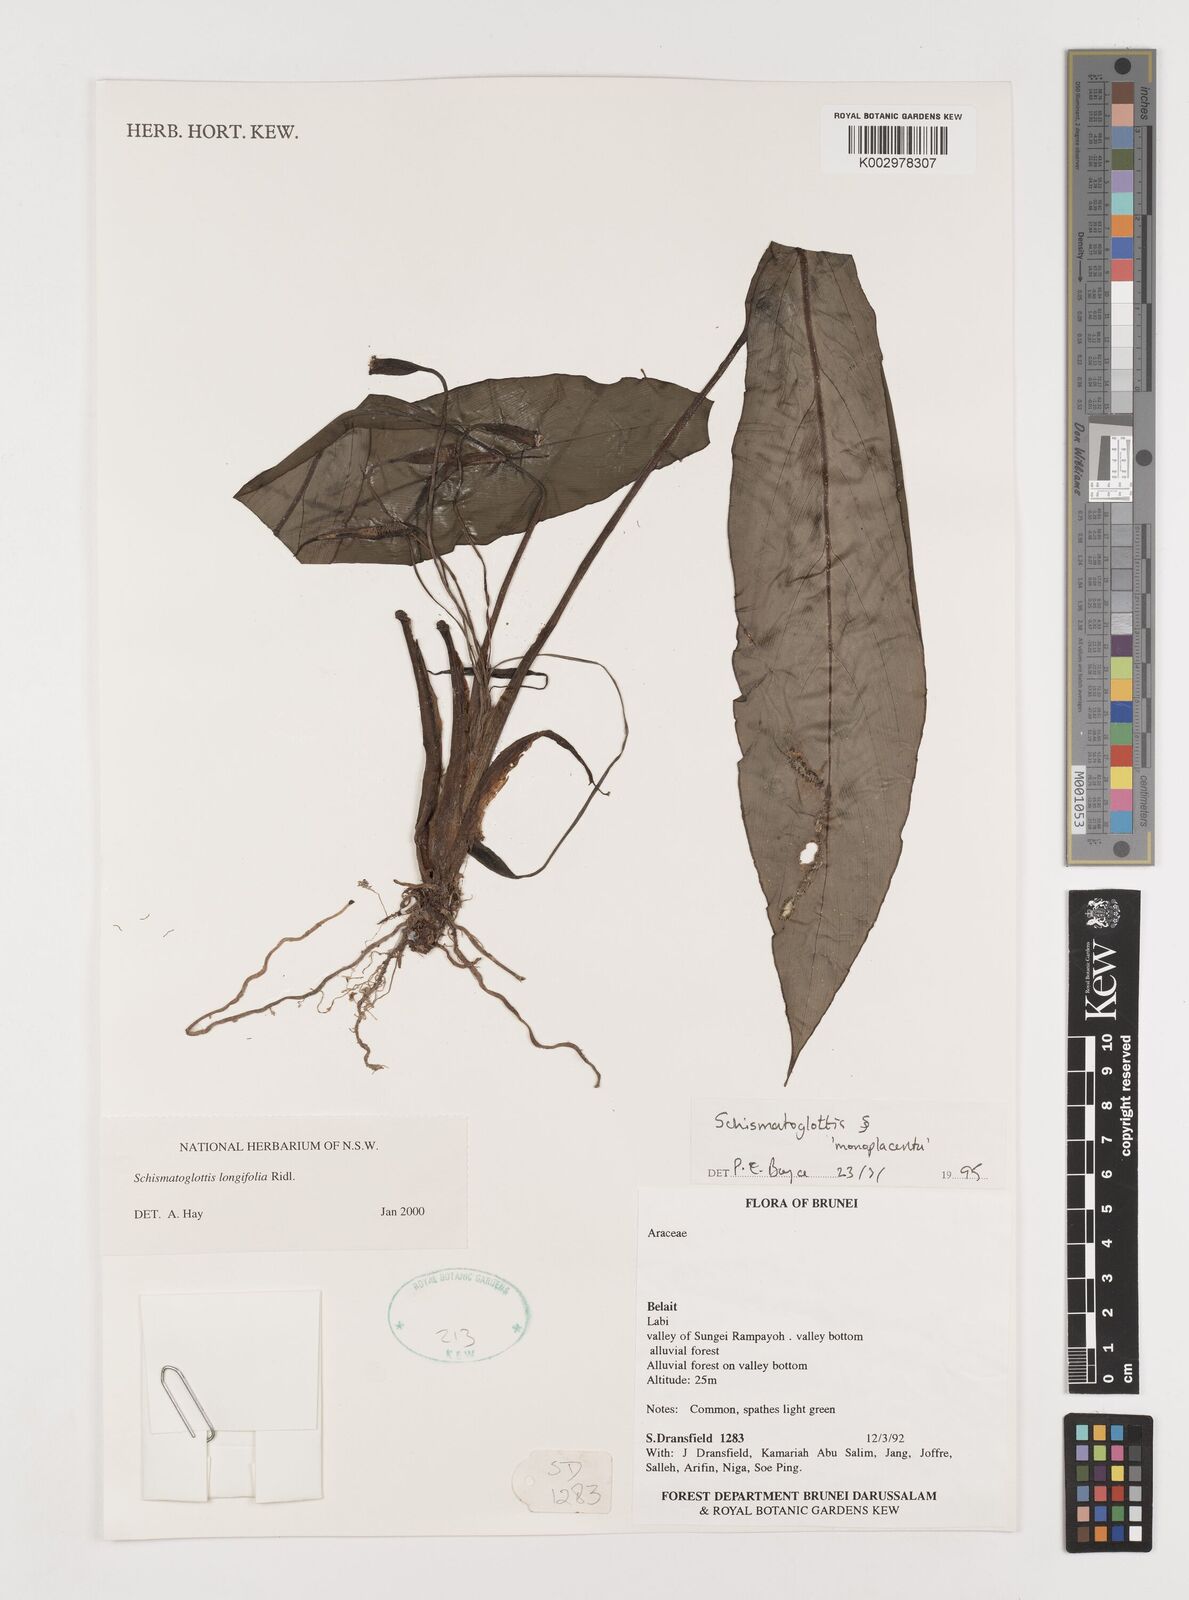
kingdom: Plantae
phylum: Tracheophyta
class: Liliopsida
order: Alismatales
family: Araceae
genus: Vesta
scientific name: Vesta longifolia
